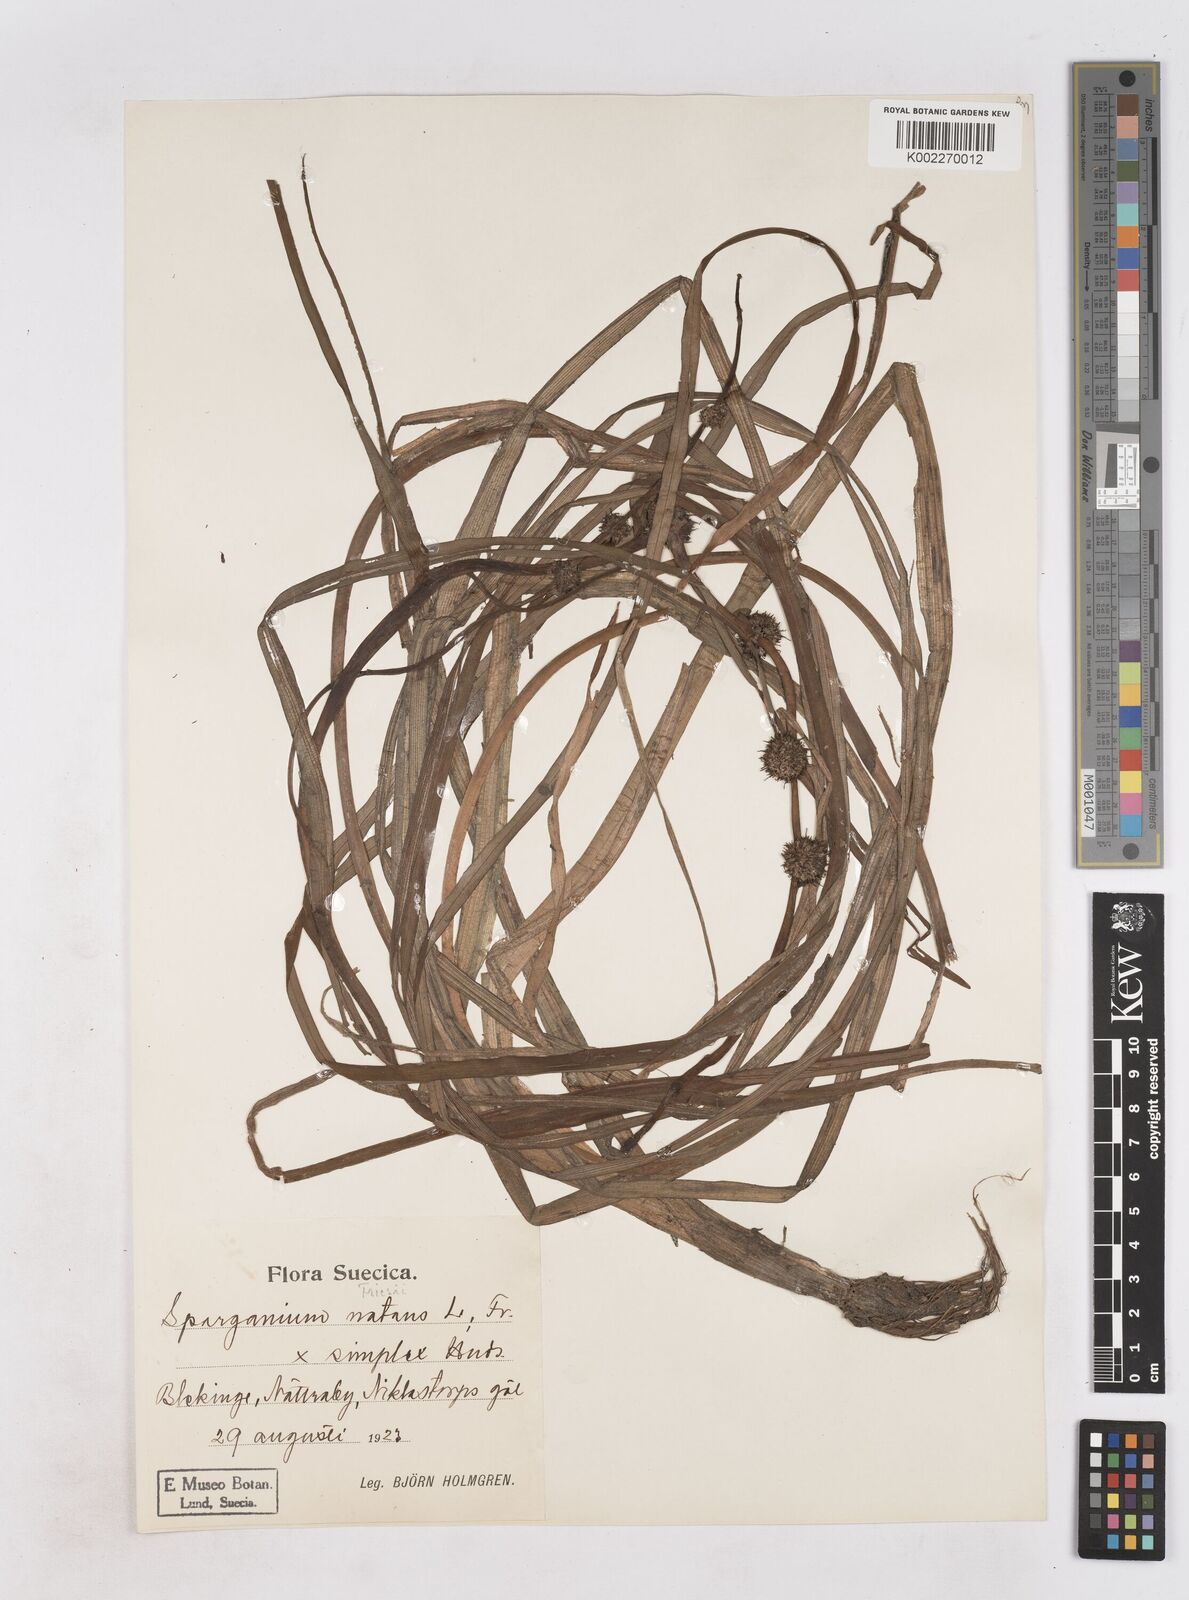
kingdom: Plantae
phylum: Tracheophyta
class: Liliopsida
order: Poales
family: Typhaceae
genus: Sparganium
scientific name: Sparganium gramineum
